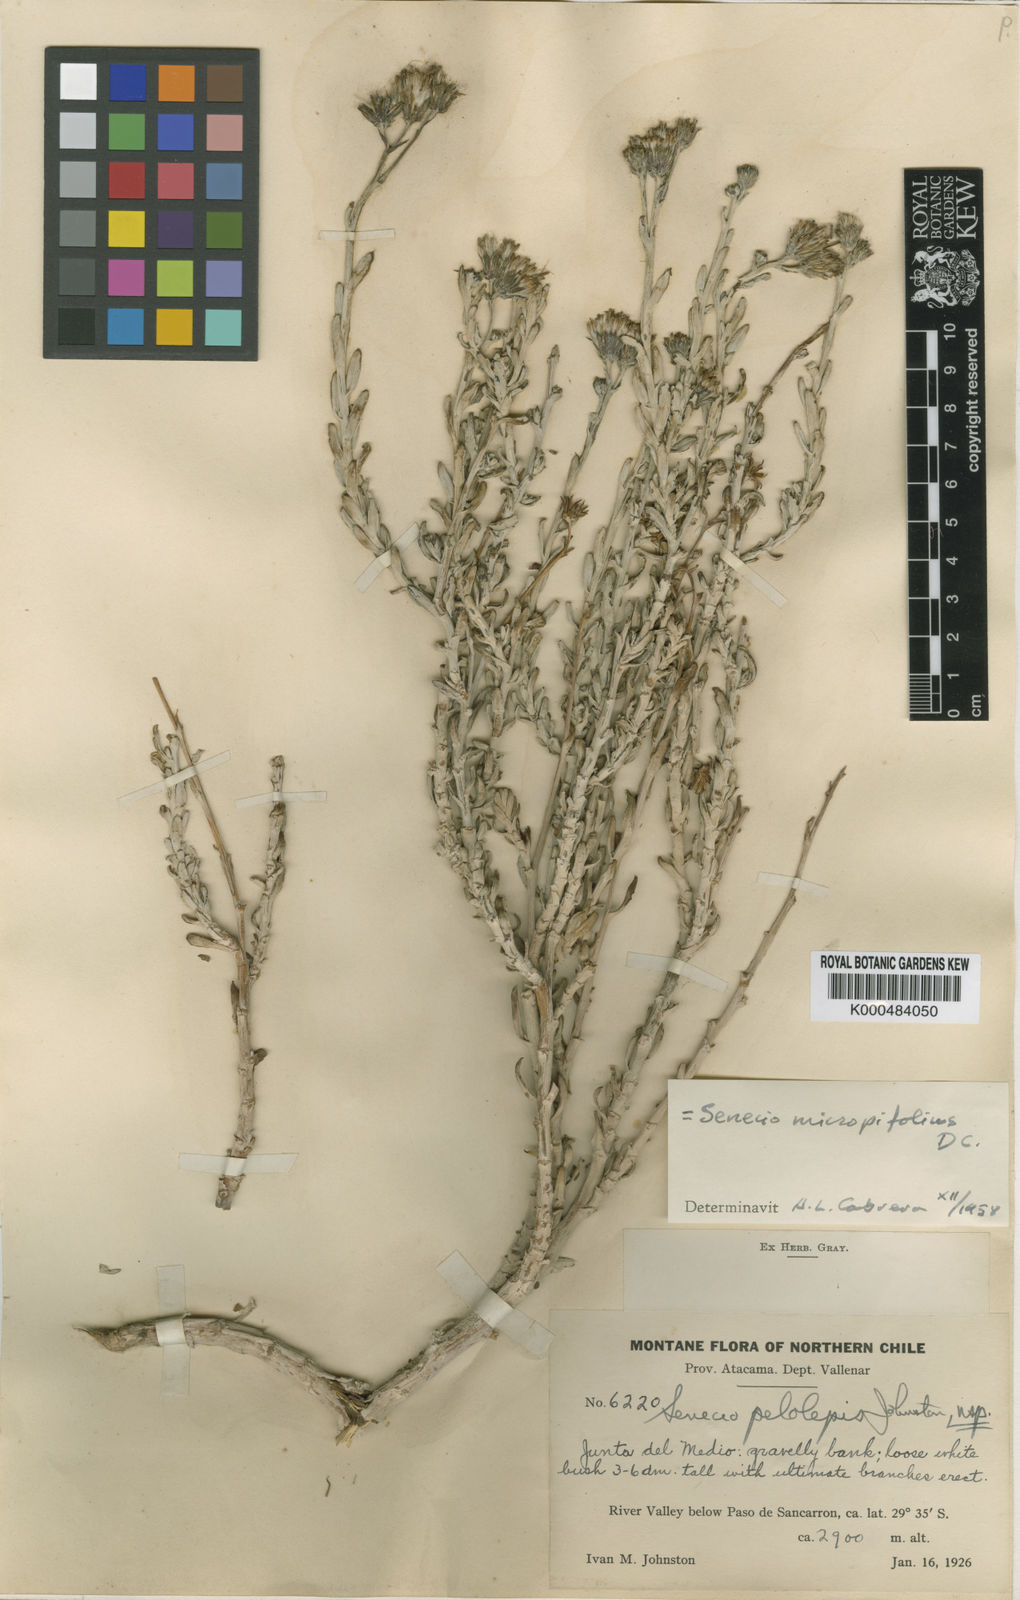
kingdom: Plantae
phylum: Tracheophyta
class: Magnoliopsida
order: Asterales
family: Asteraceae
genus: Senecio
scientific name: Senecio micropifolius
